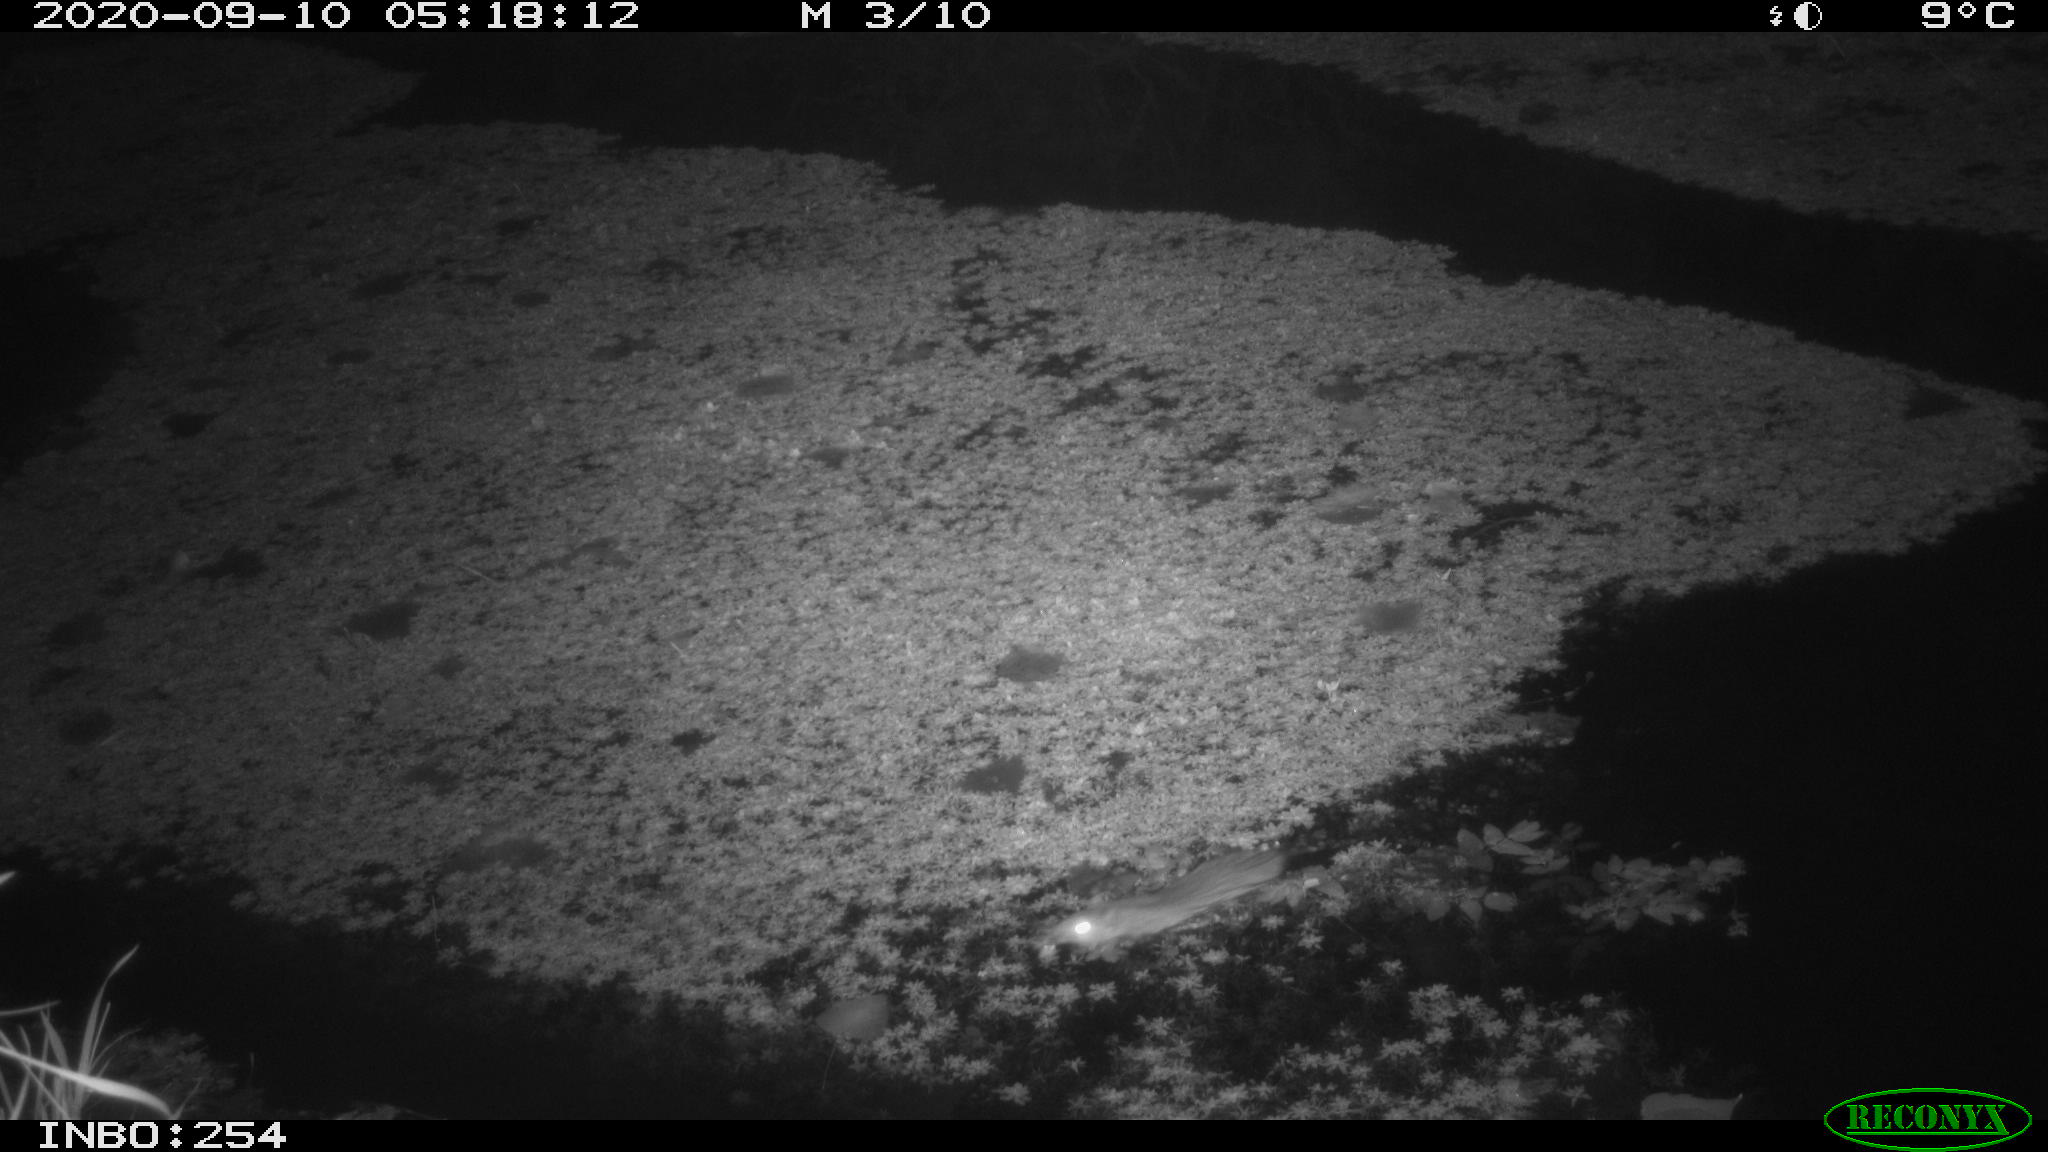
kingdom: Animalia
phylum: Chordata
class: Mammalia
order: Rodentia
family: Muridae
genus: Rattus
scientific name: Rattus norvegicus
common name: Brown rat
